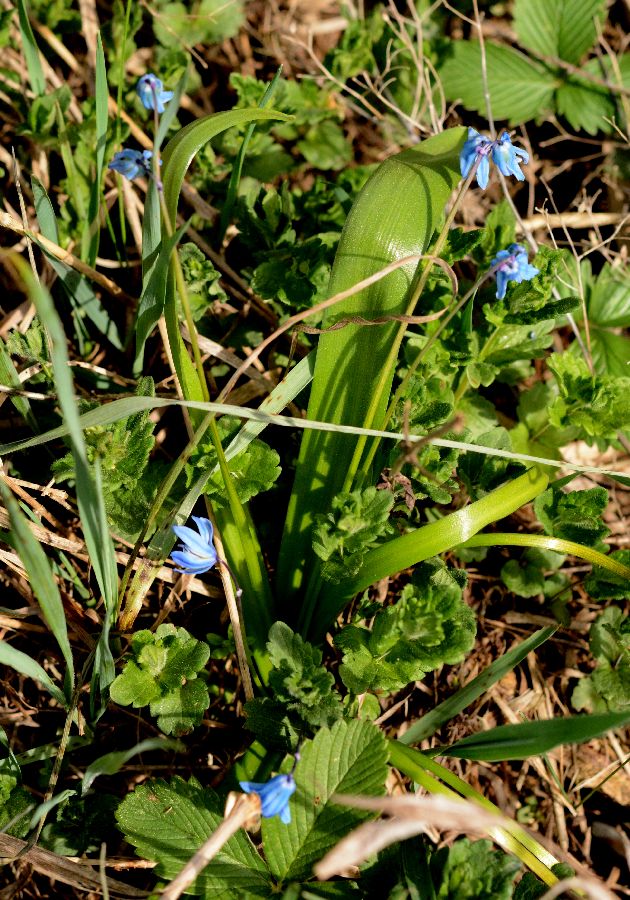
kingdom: Plantae
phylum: Tracheophyta
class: Liliopsida
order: Asparagales
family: Asparagaceae
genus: Scilla
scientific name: Scilla siberica
